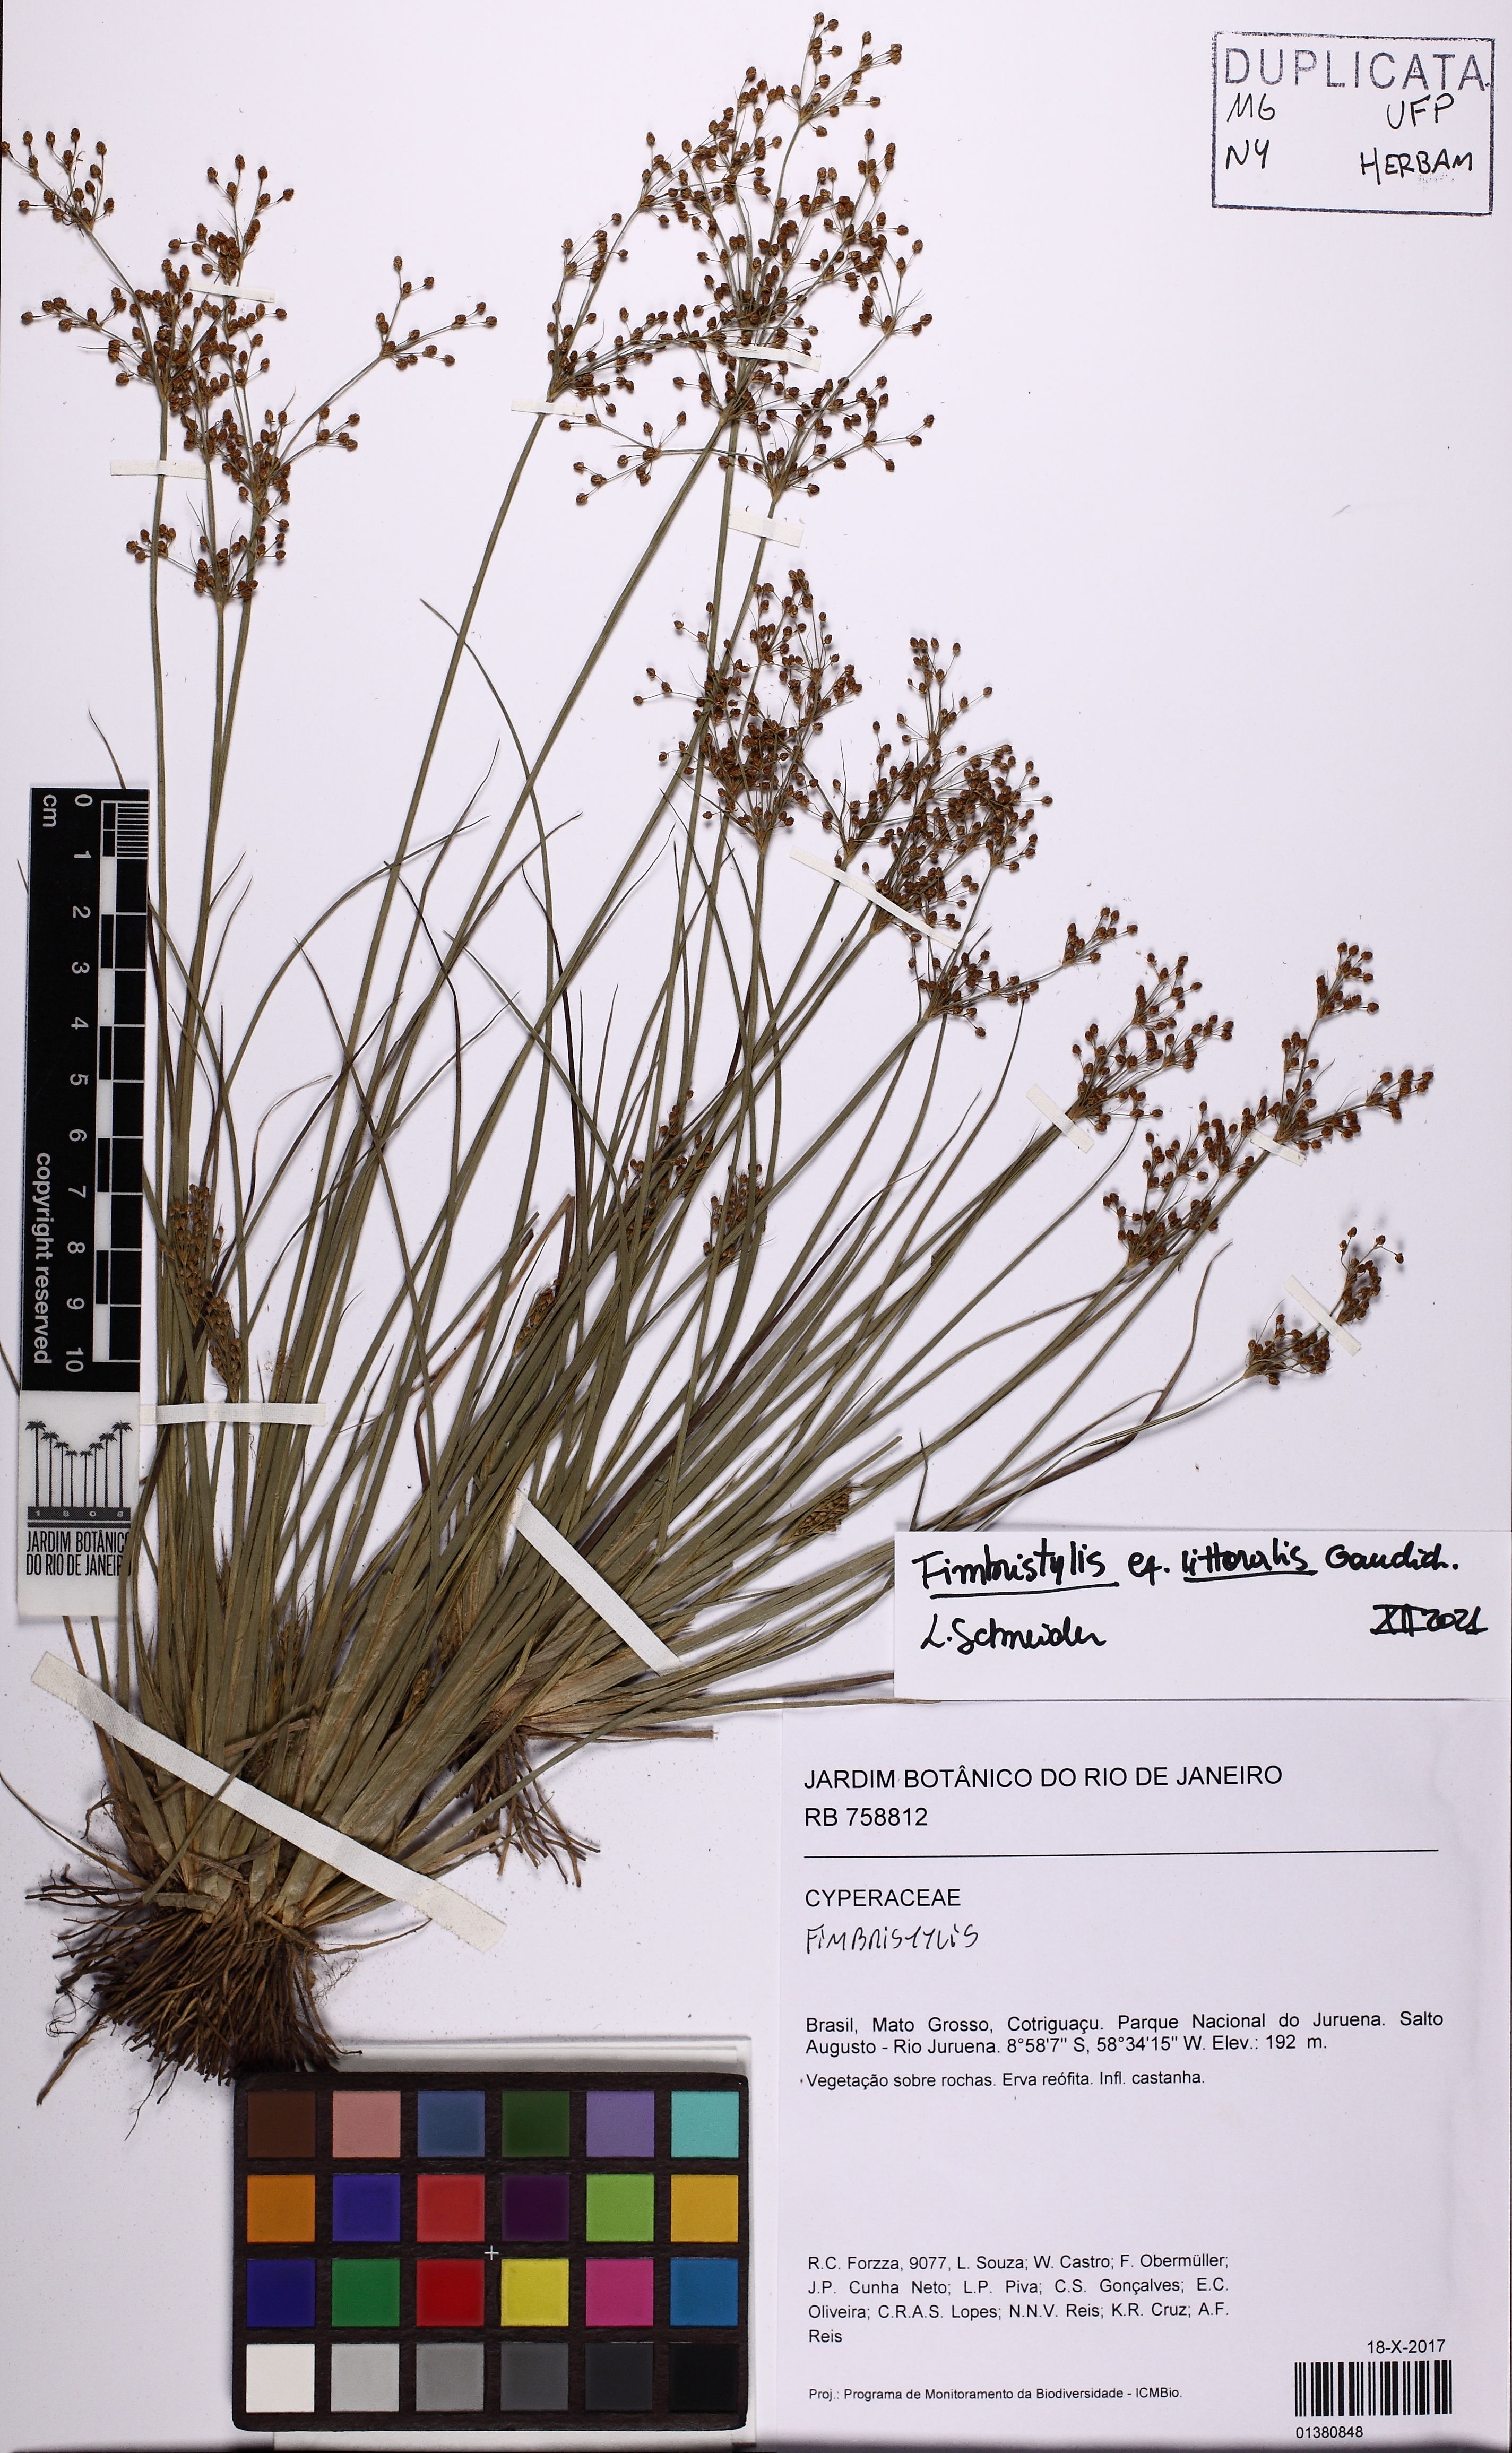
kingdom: Plantae
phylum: Tracheophyta
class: Liliopsida
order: Poales
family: Cyperaceae
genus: Fimbristylis
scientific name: Fimbristylis littoralis
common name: Fimbry
